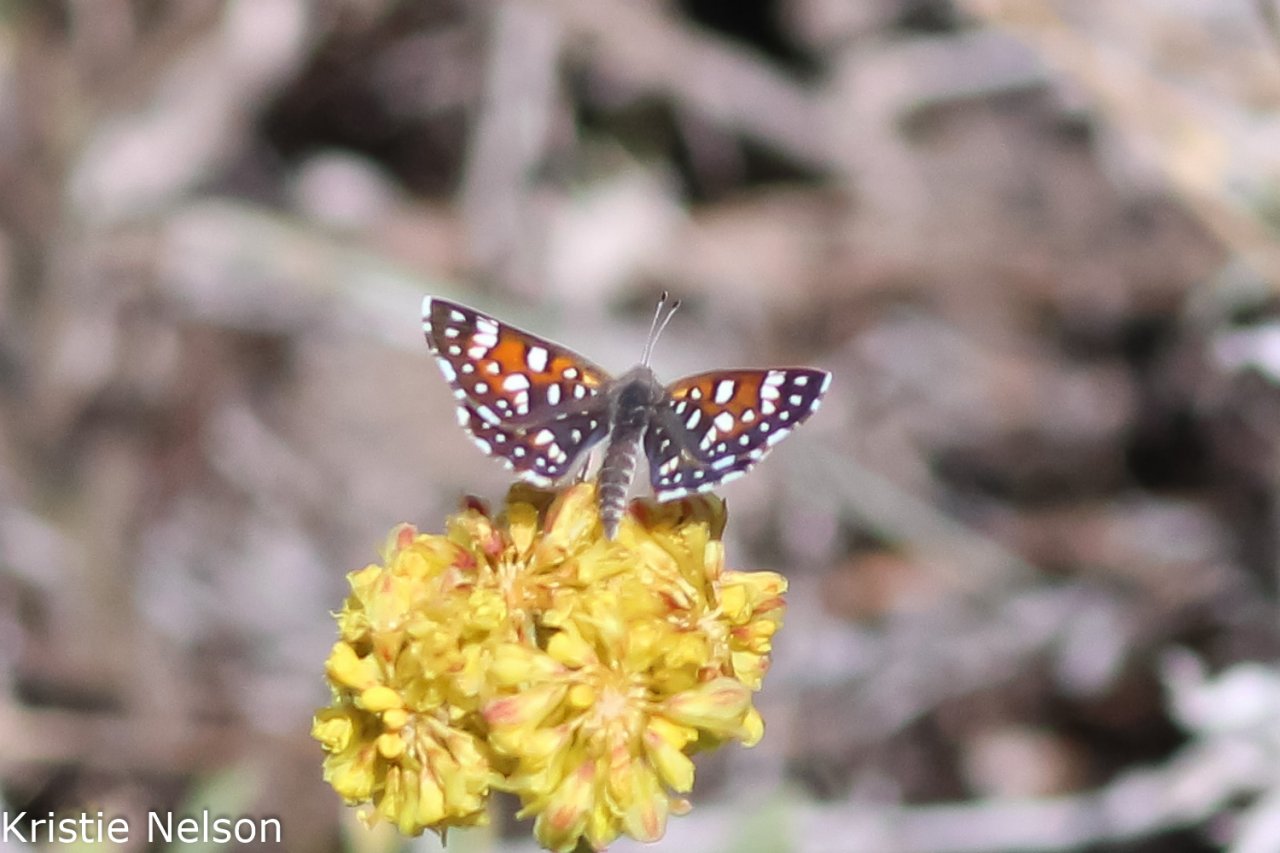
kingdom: Animalia
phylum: Arthropoda
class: Insecta
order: Lepidoptera
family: Riodinidae
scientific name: Riodinidae
